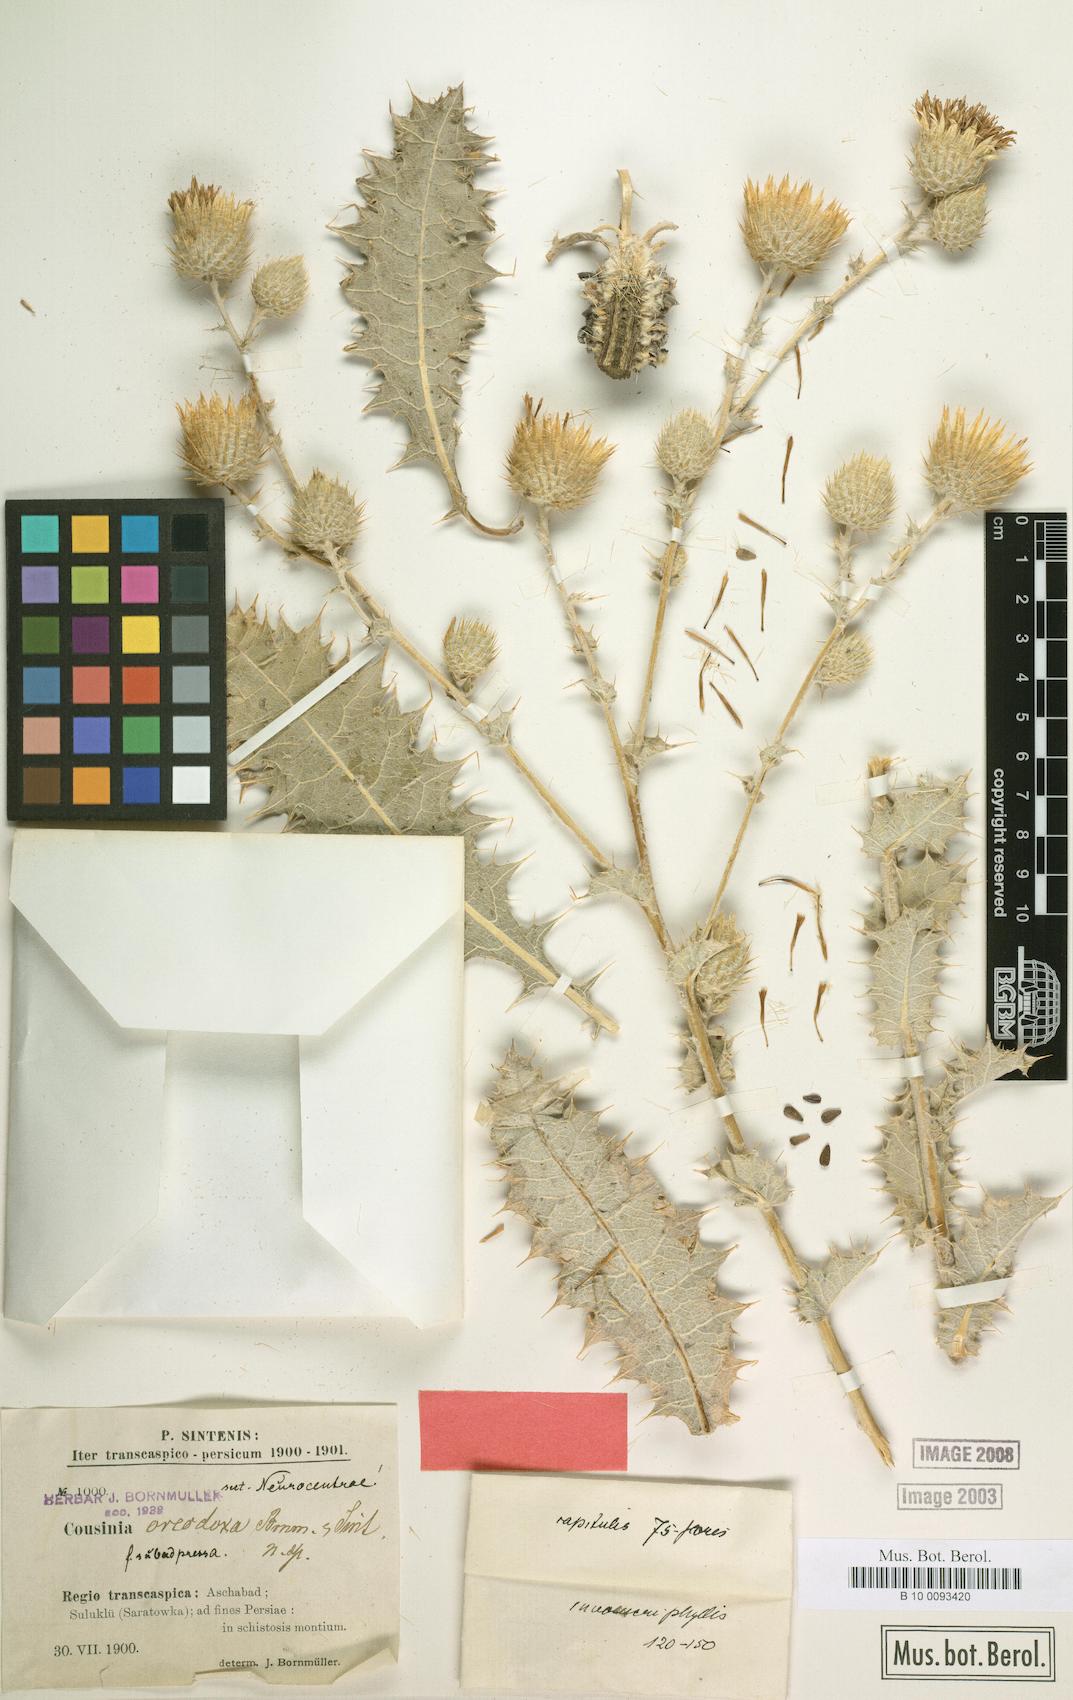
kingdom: Plantae
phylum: Tracheophyta
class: Magnoliopsida
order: Asterales
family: Asteraceae
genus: Cousinia
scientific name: Cousinia oreodoxa
